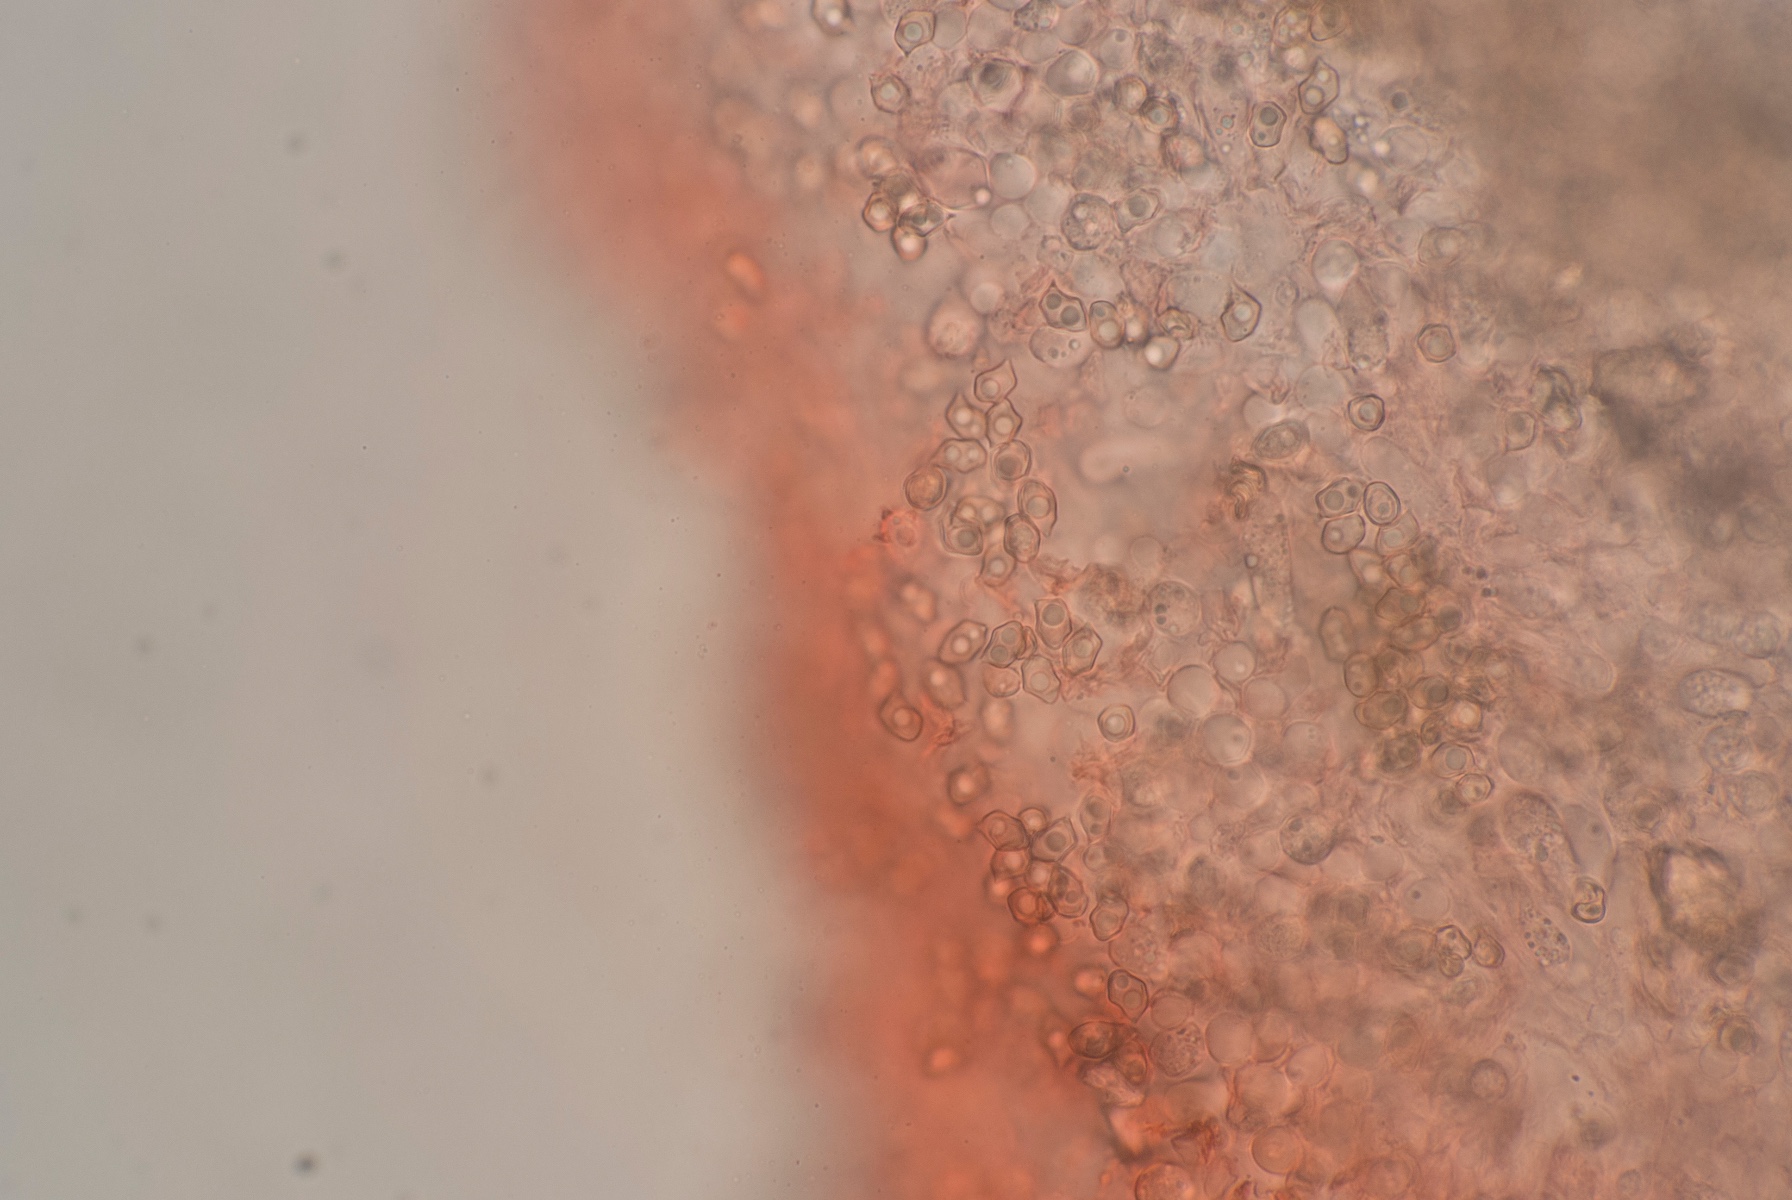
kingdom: Fungi
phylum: Basidiomycota
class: Agaricomycetes
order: Agaricales
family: Entolomataceae
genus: Entoloma
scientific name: Entoloma hebes
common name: krat-rødblad
